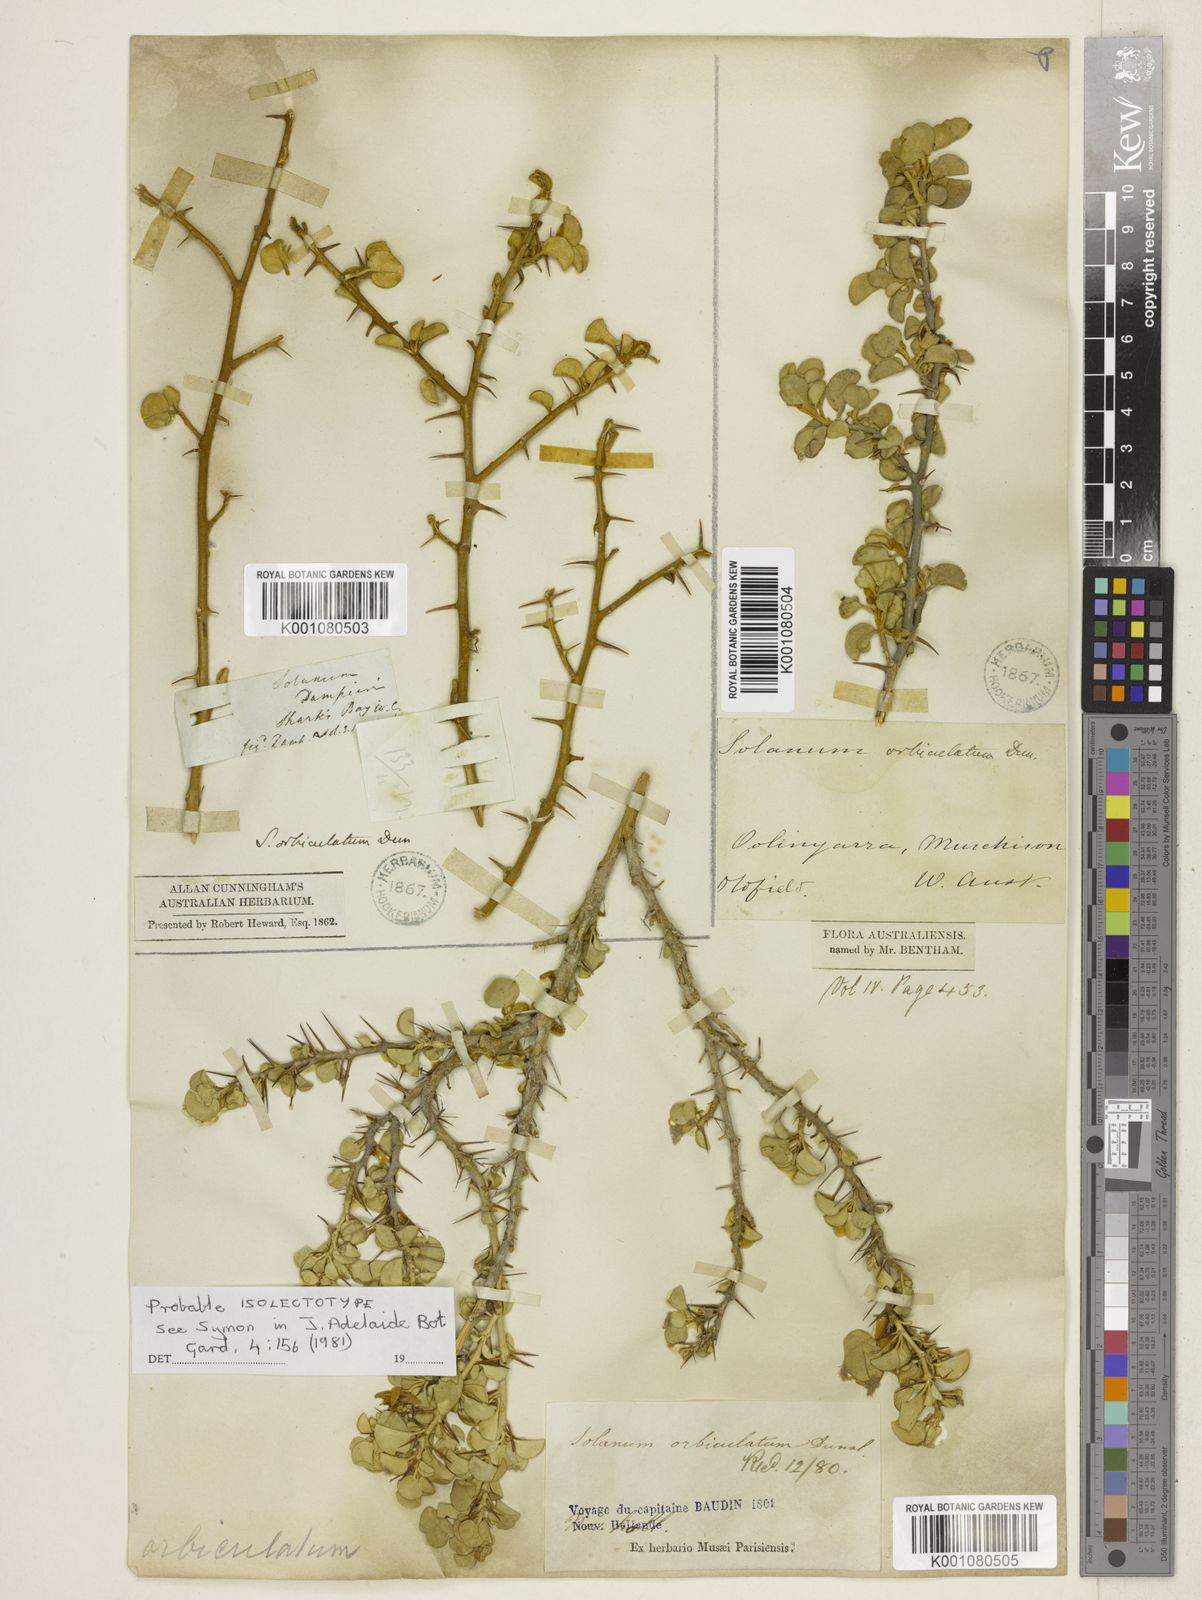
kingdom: Plantae
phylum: Tracheophyta
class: Magnoliopsida
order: Solanales
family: Solanaceae
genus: Solanum
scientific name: Solanum orbiculatum
